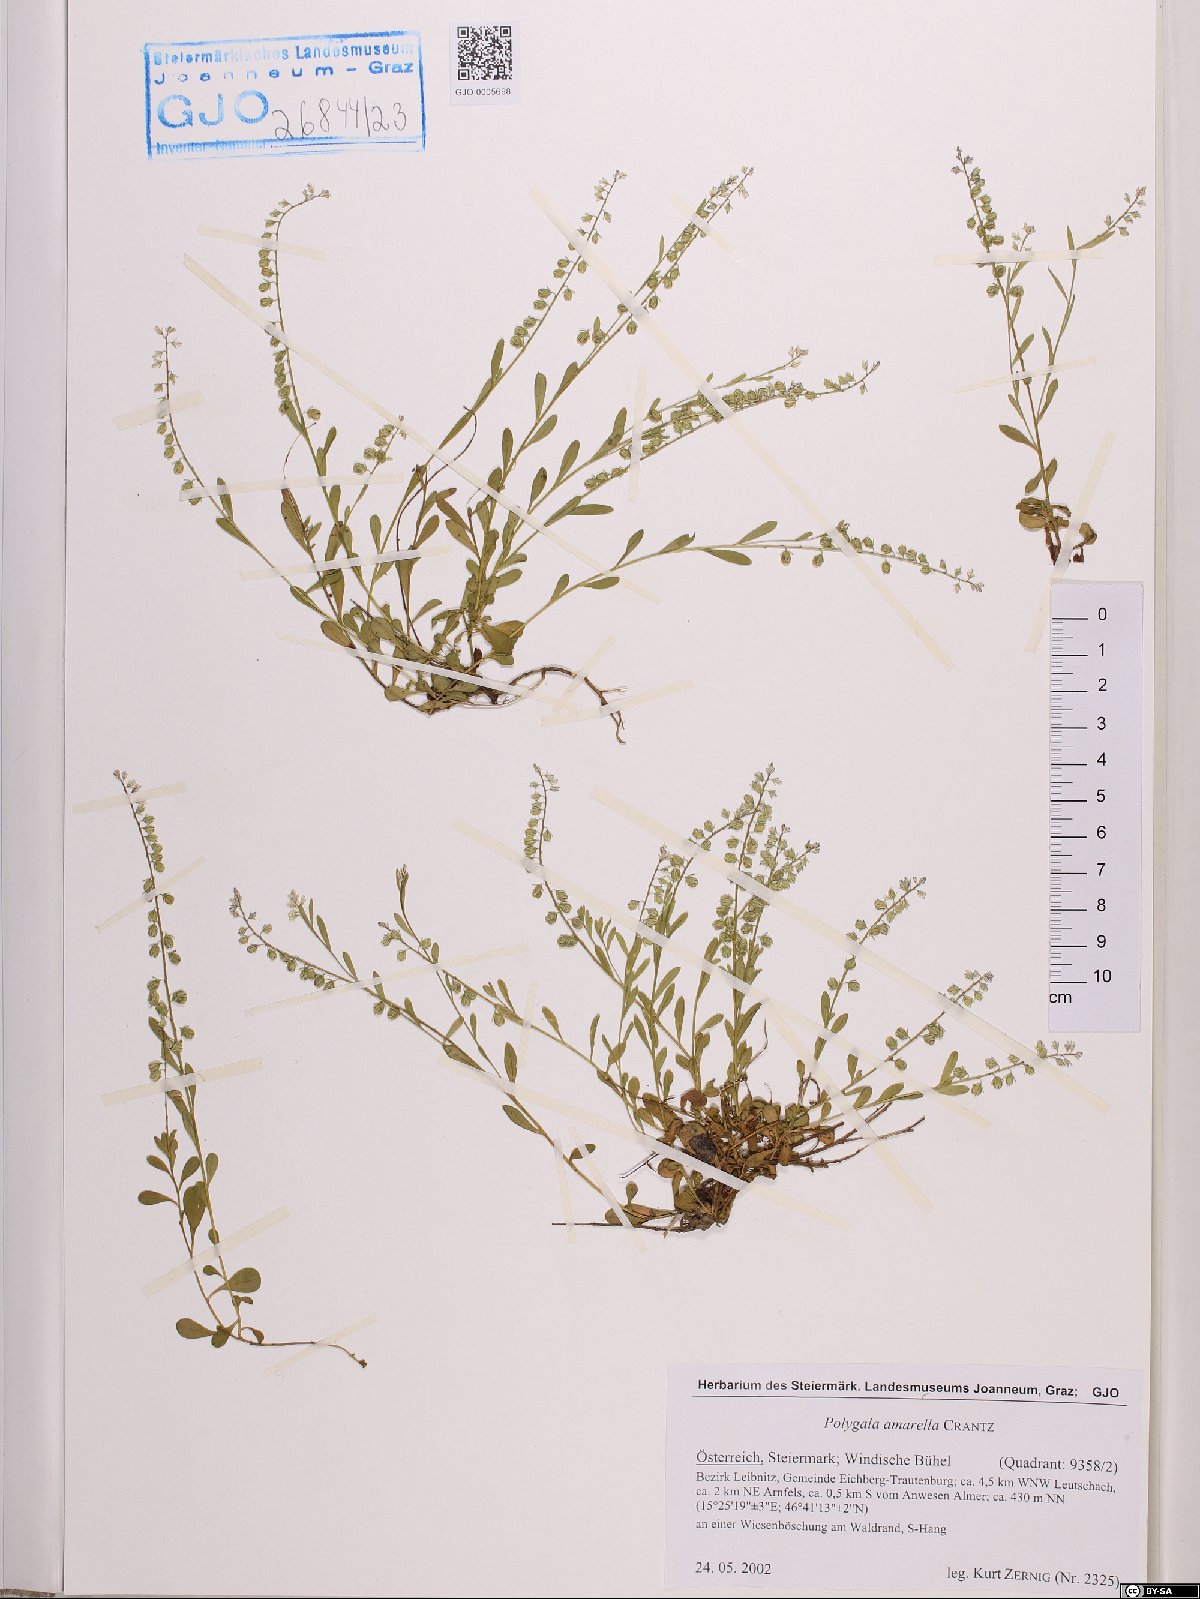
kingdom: Plantae
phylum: Tracheophyta
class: Magnoliopsida
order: Fabales
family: Polygalaceae
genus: Polygala
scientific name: Polygala amarella
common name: Dwarf milkwort
